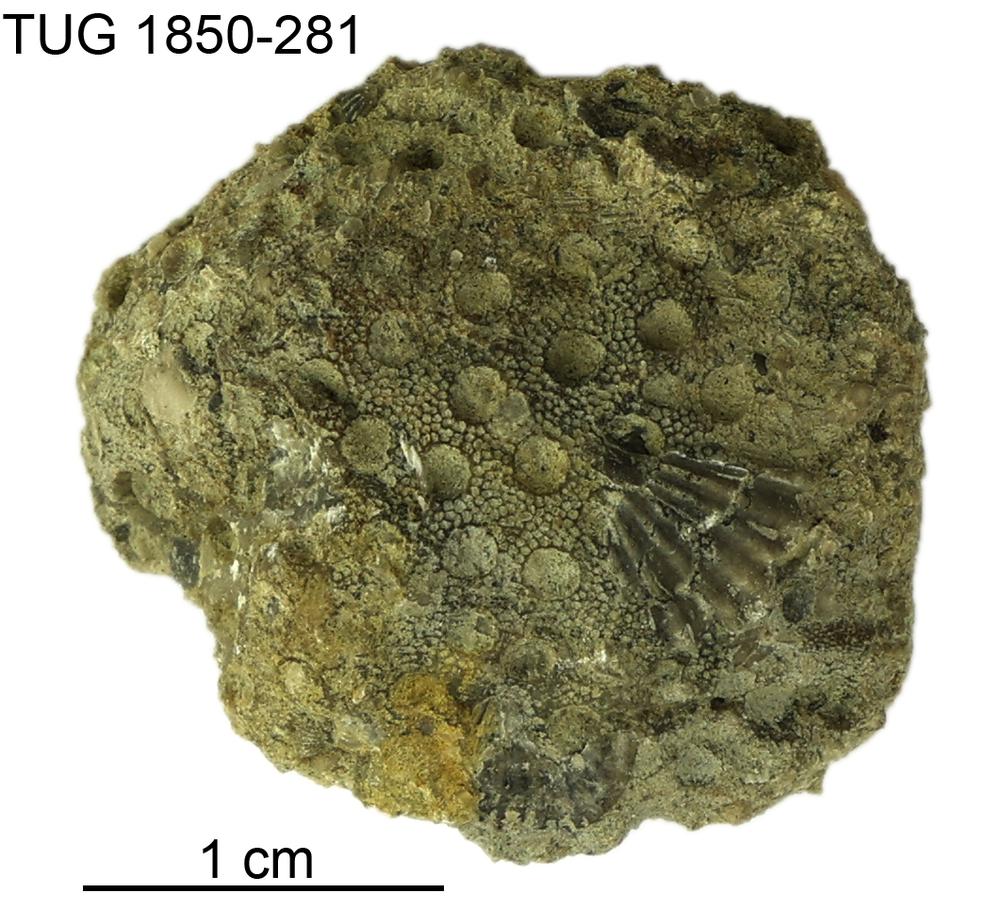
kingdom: Animalia
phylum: Cnidaria
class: Anthozoa
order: Heliolitina
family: Heliolitidae
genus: Heliolites
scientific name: Heliolites
